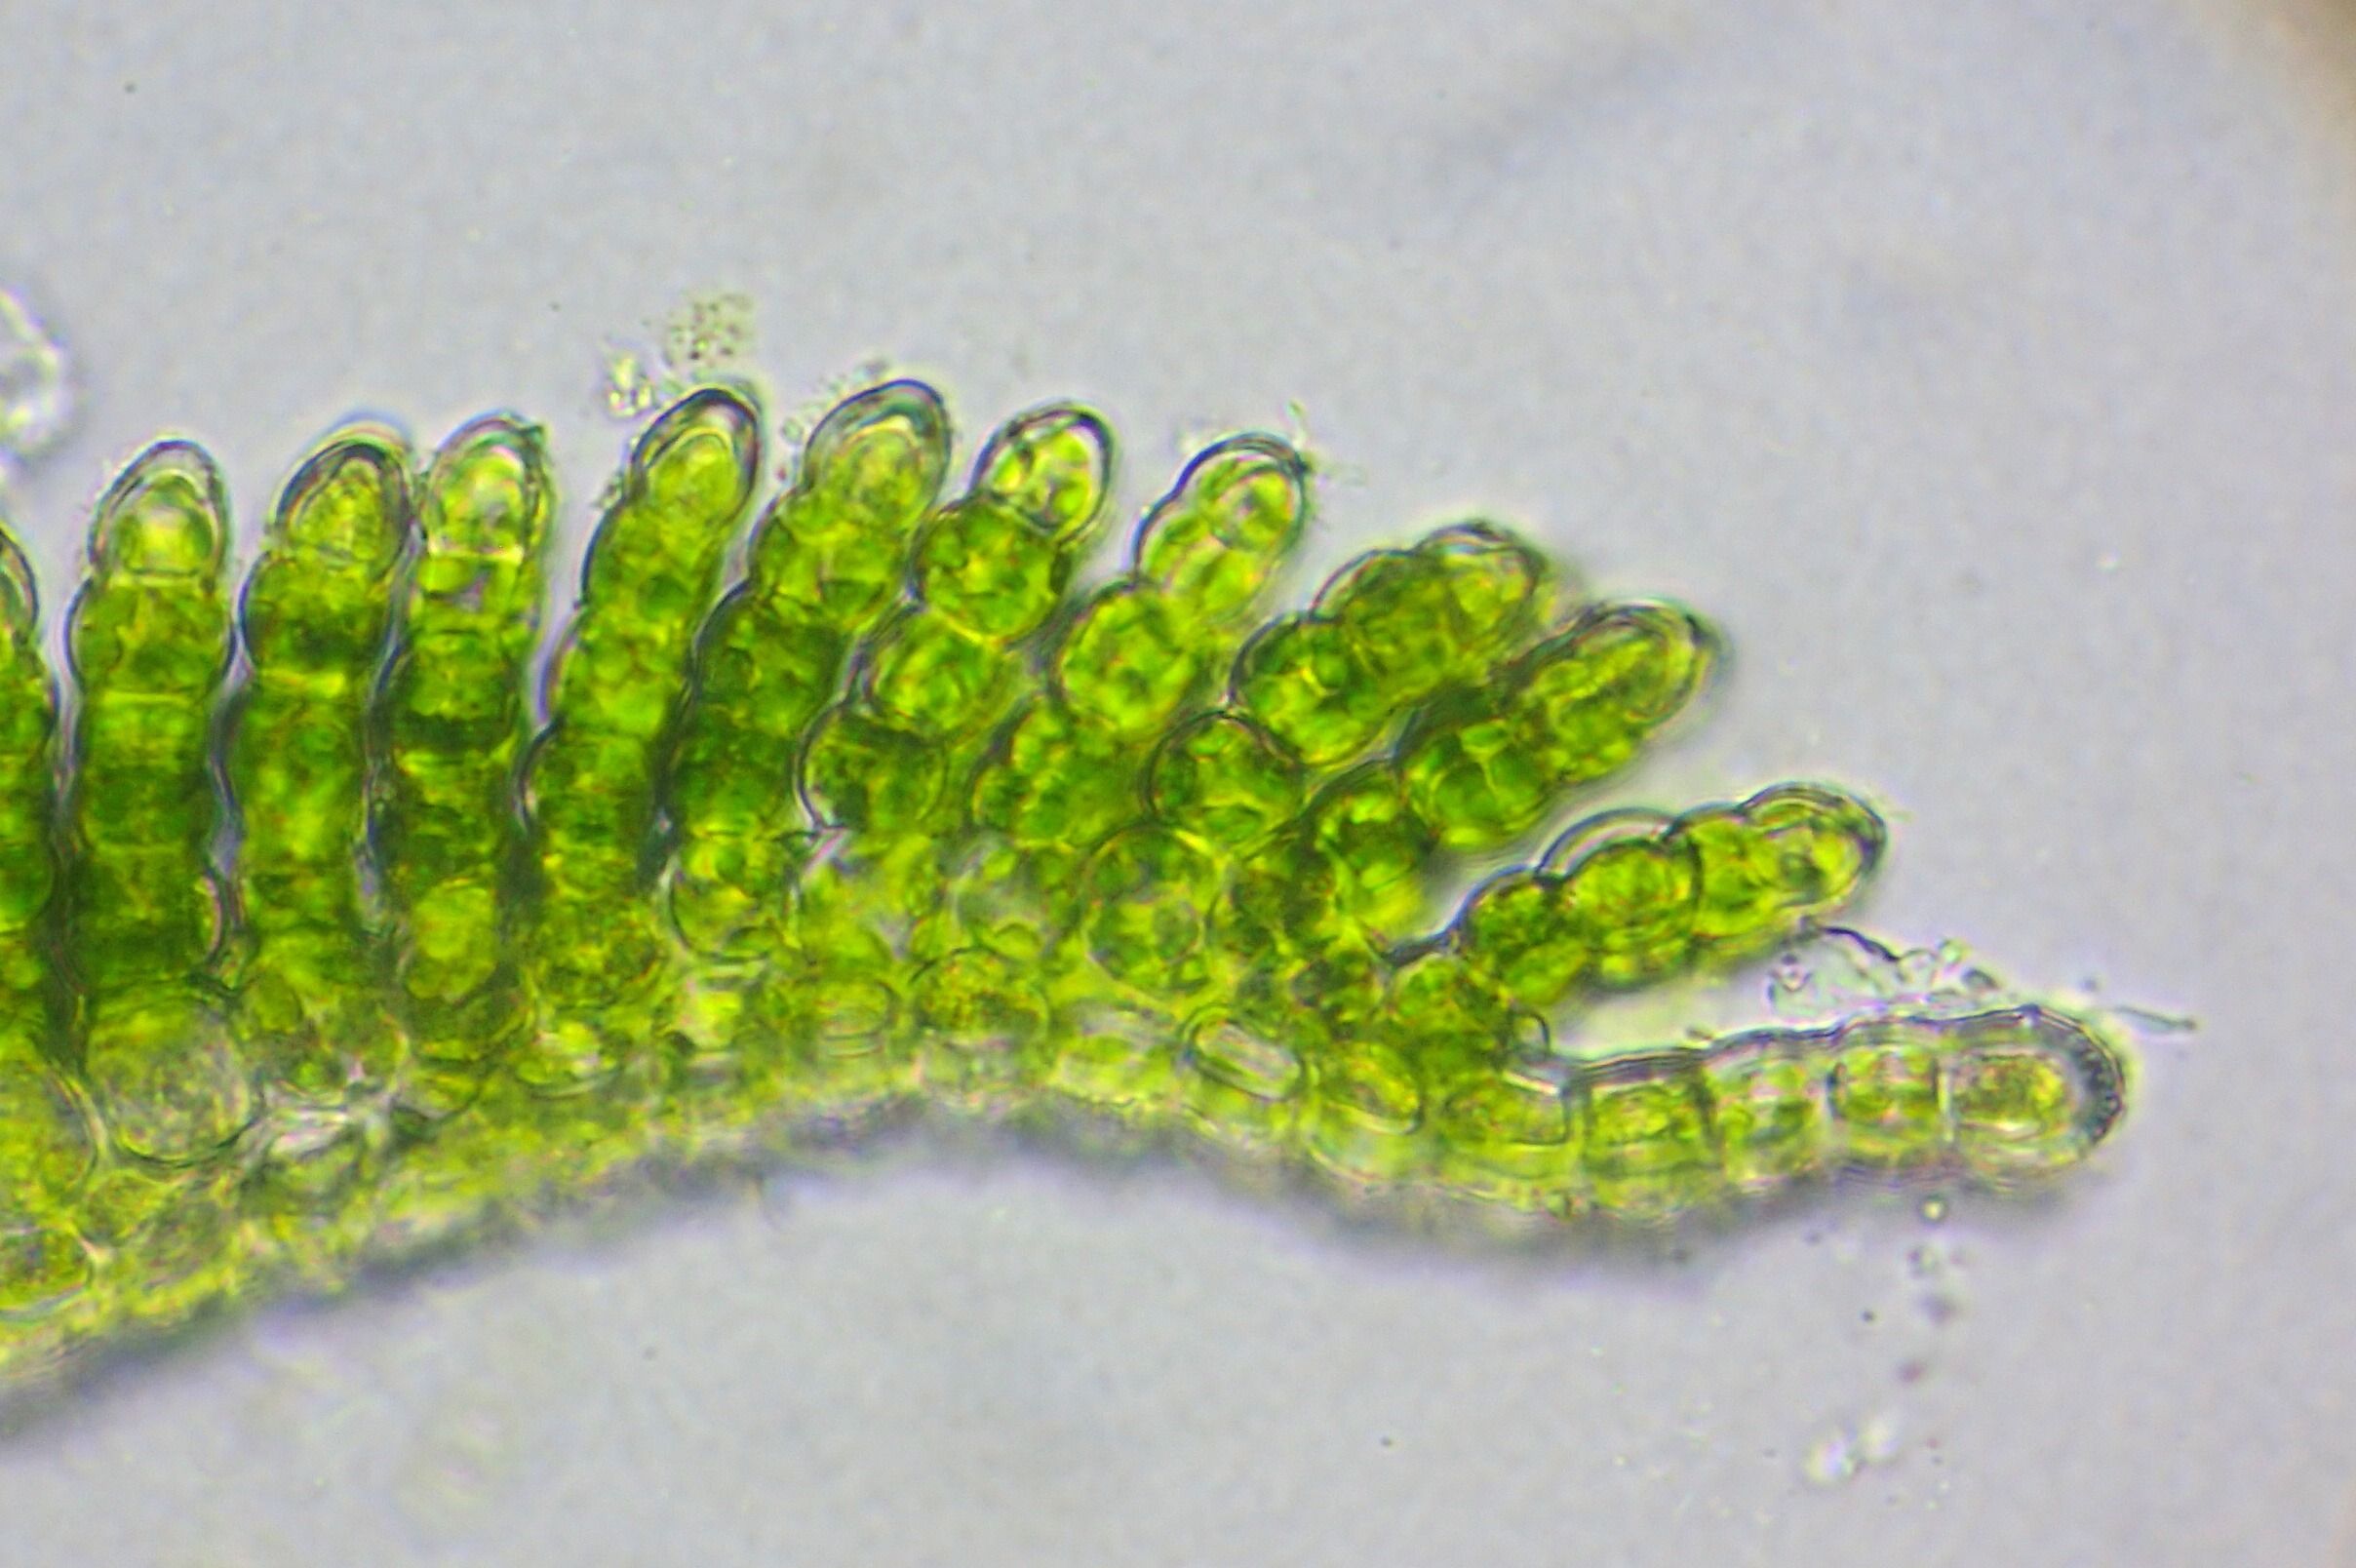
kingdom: Plantae
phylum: Bryophyta
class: Polytrichopsida
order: Polytrichales
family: Polytrichaceae
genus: Polytrichum
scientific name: Polytrichum formosum
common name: Skov-jomfruhår
